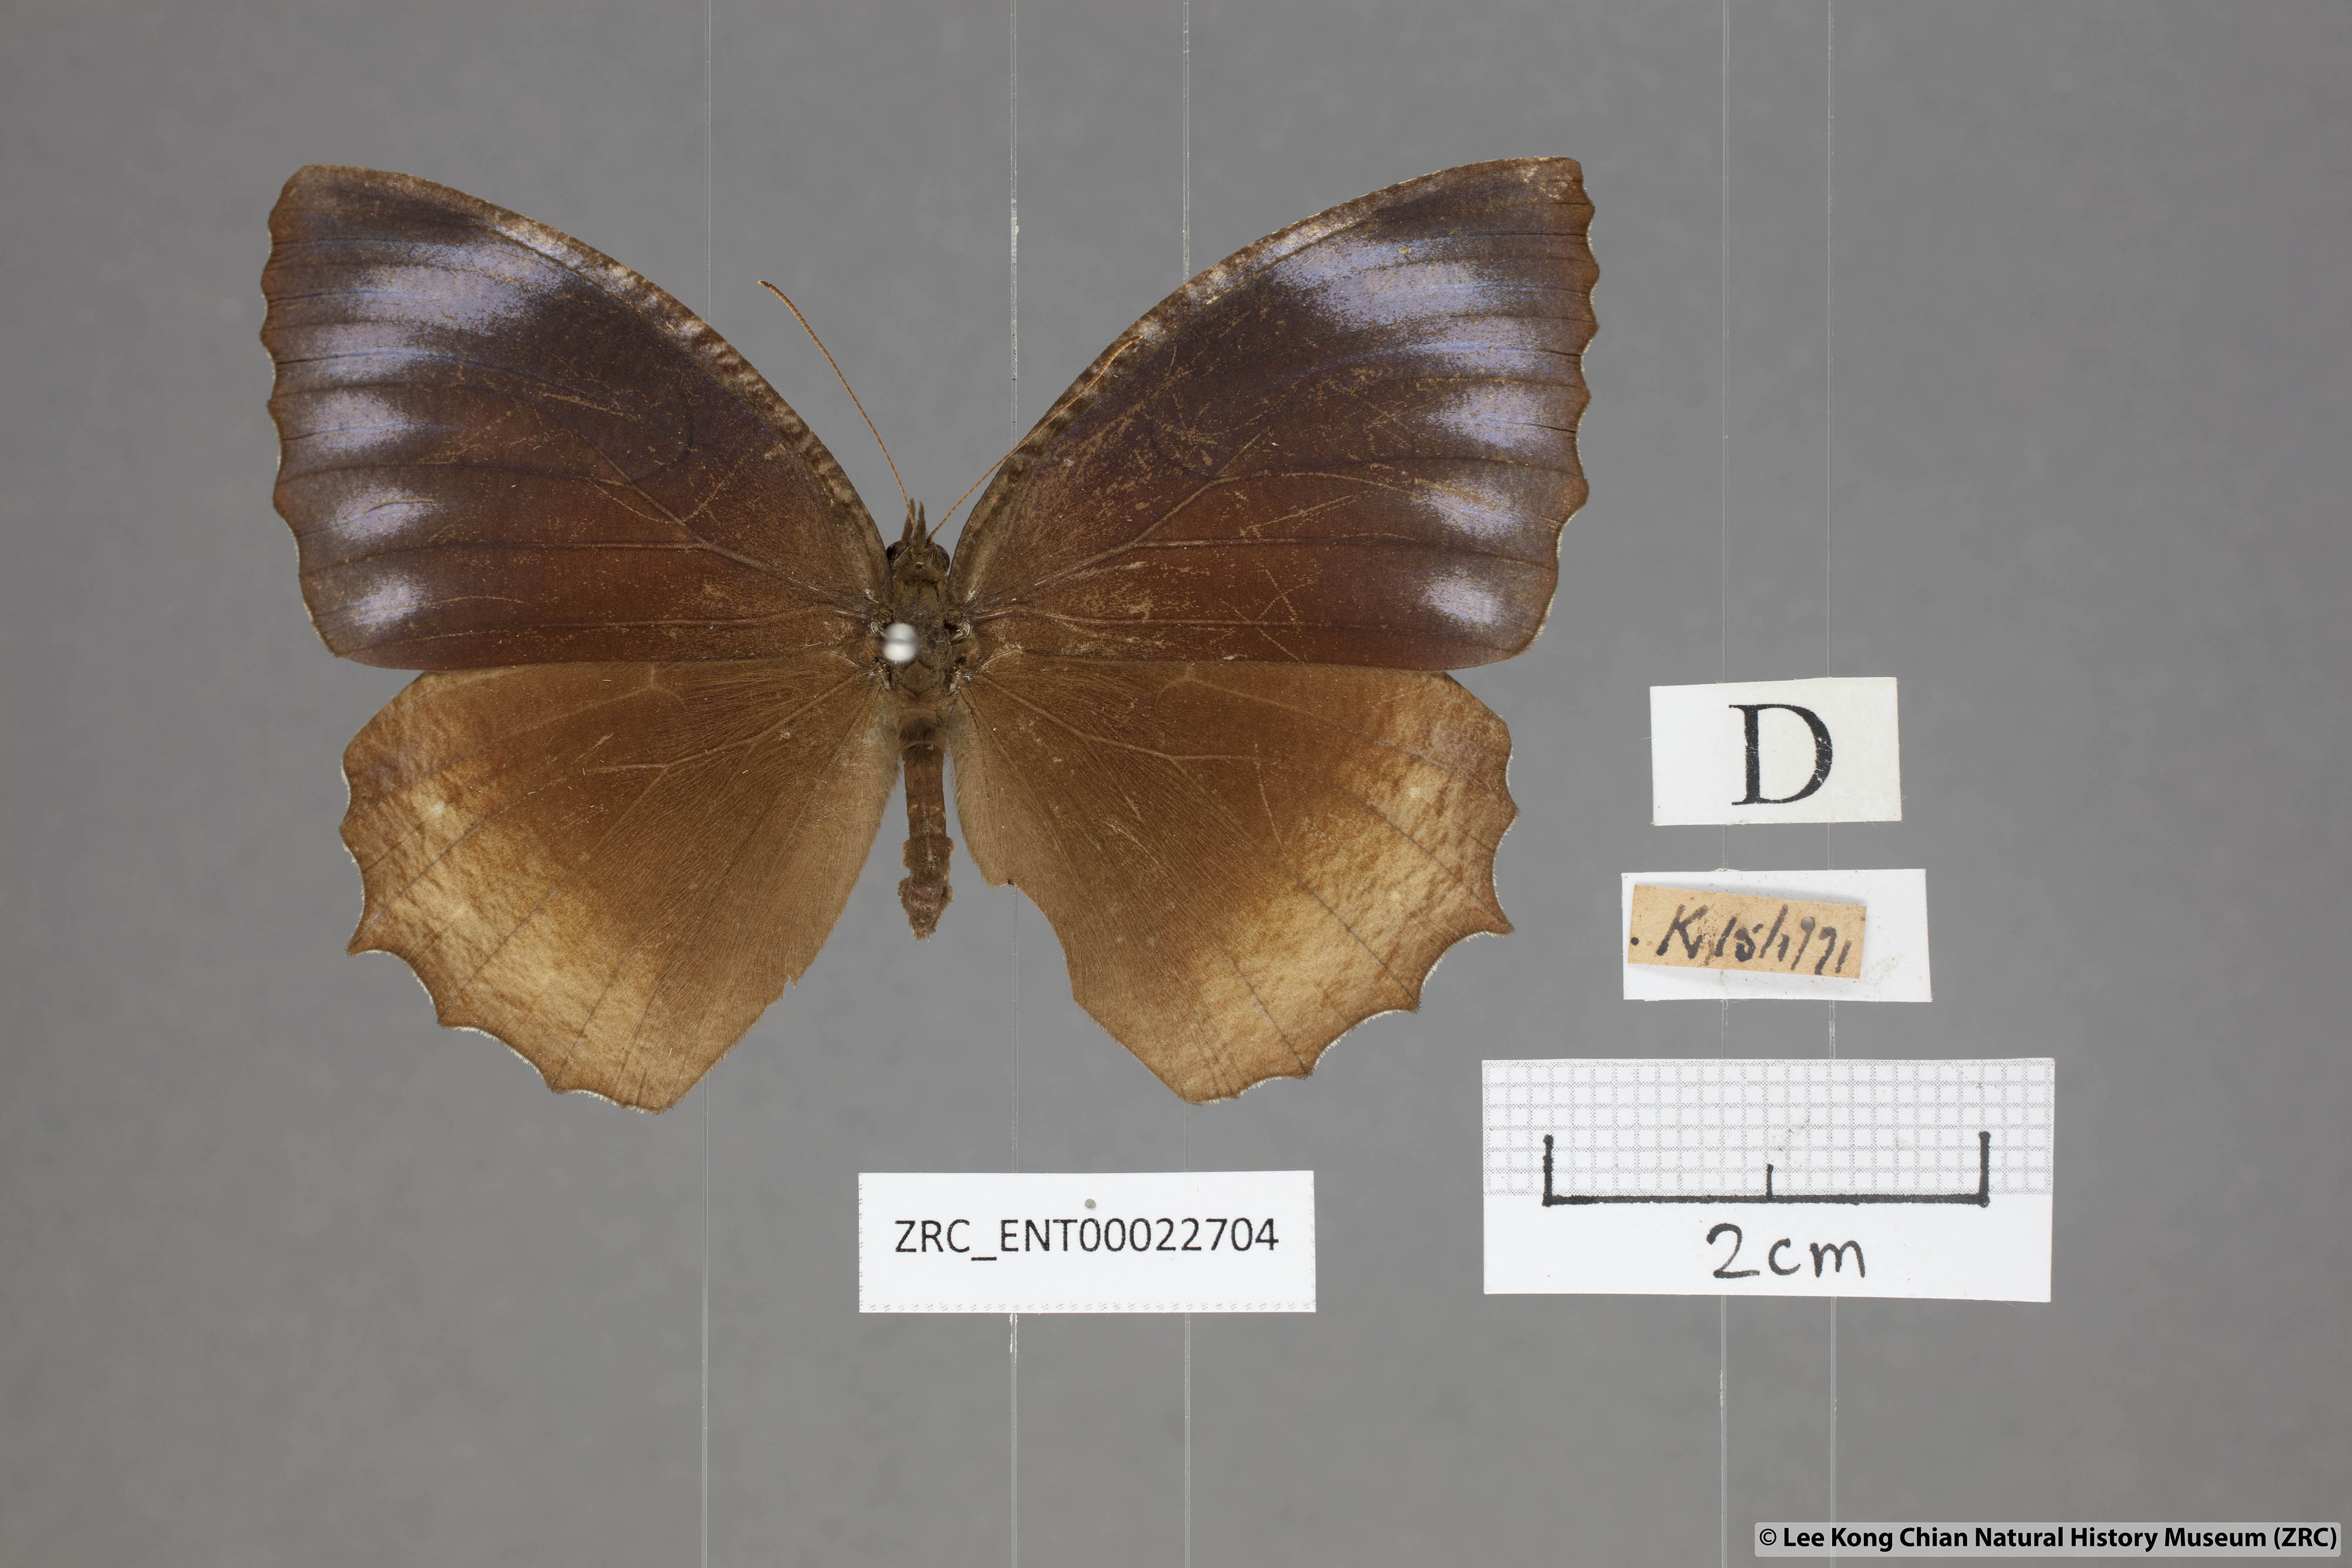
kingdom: Animalia
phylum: Arthropoda
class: Insecta
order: Lepidoptera
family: Nymphalidae
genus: Elymnias
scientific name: Elymnias hypermnestra
